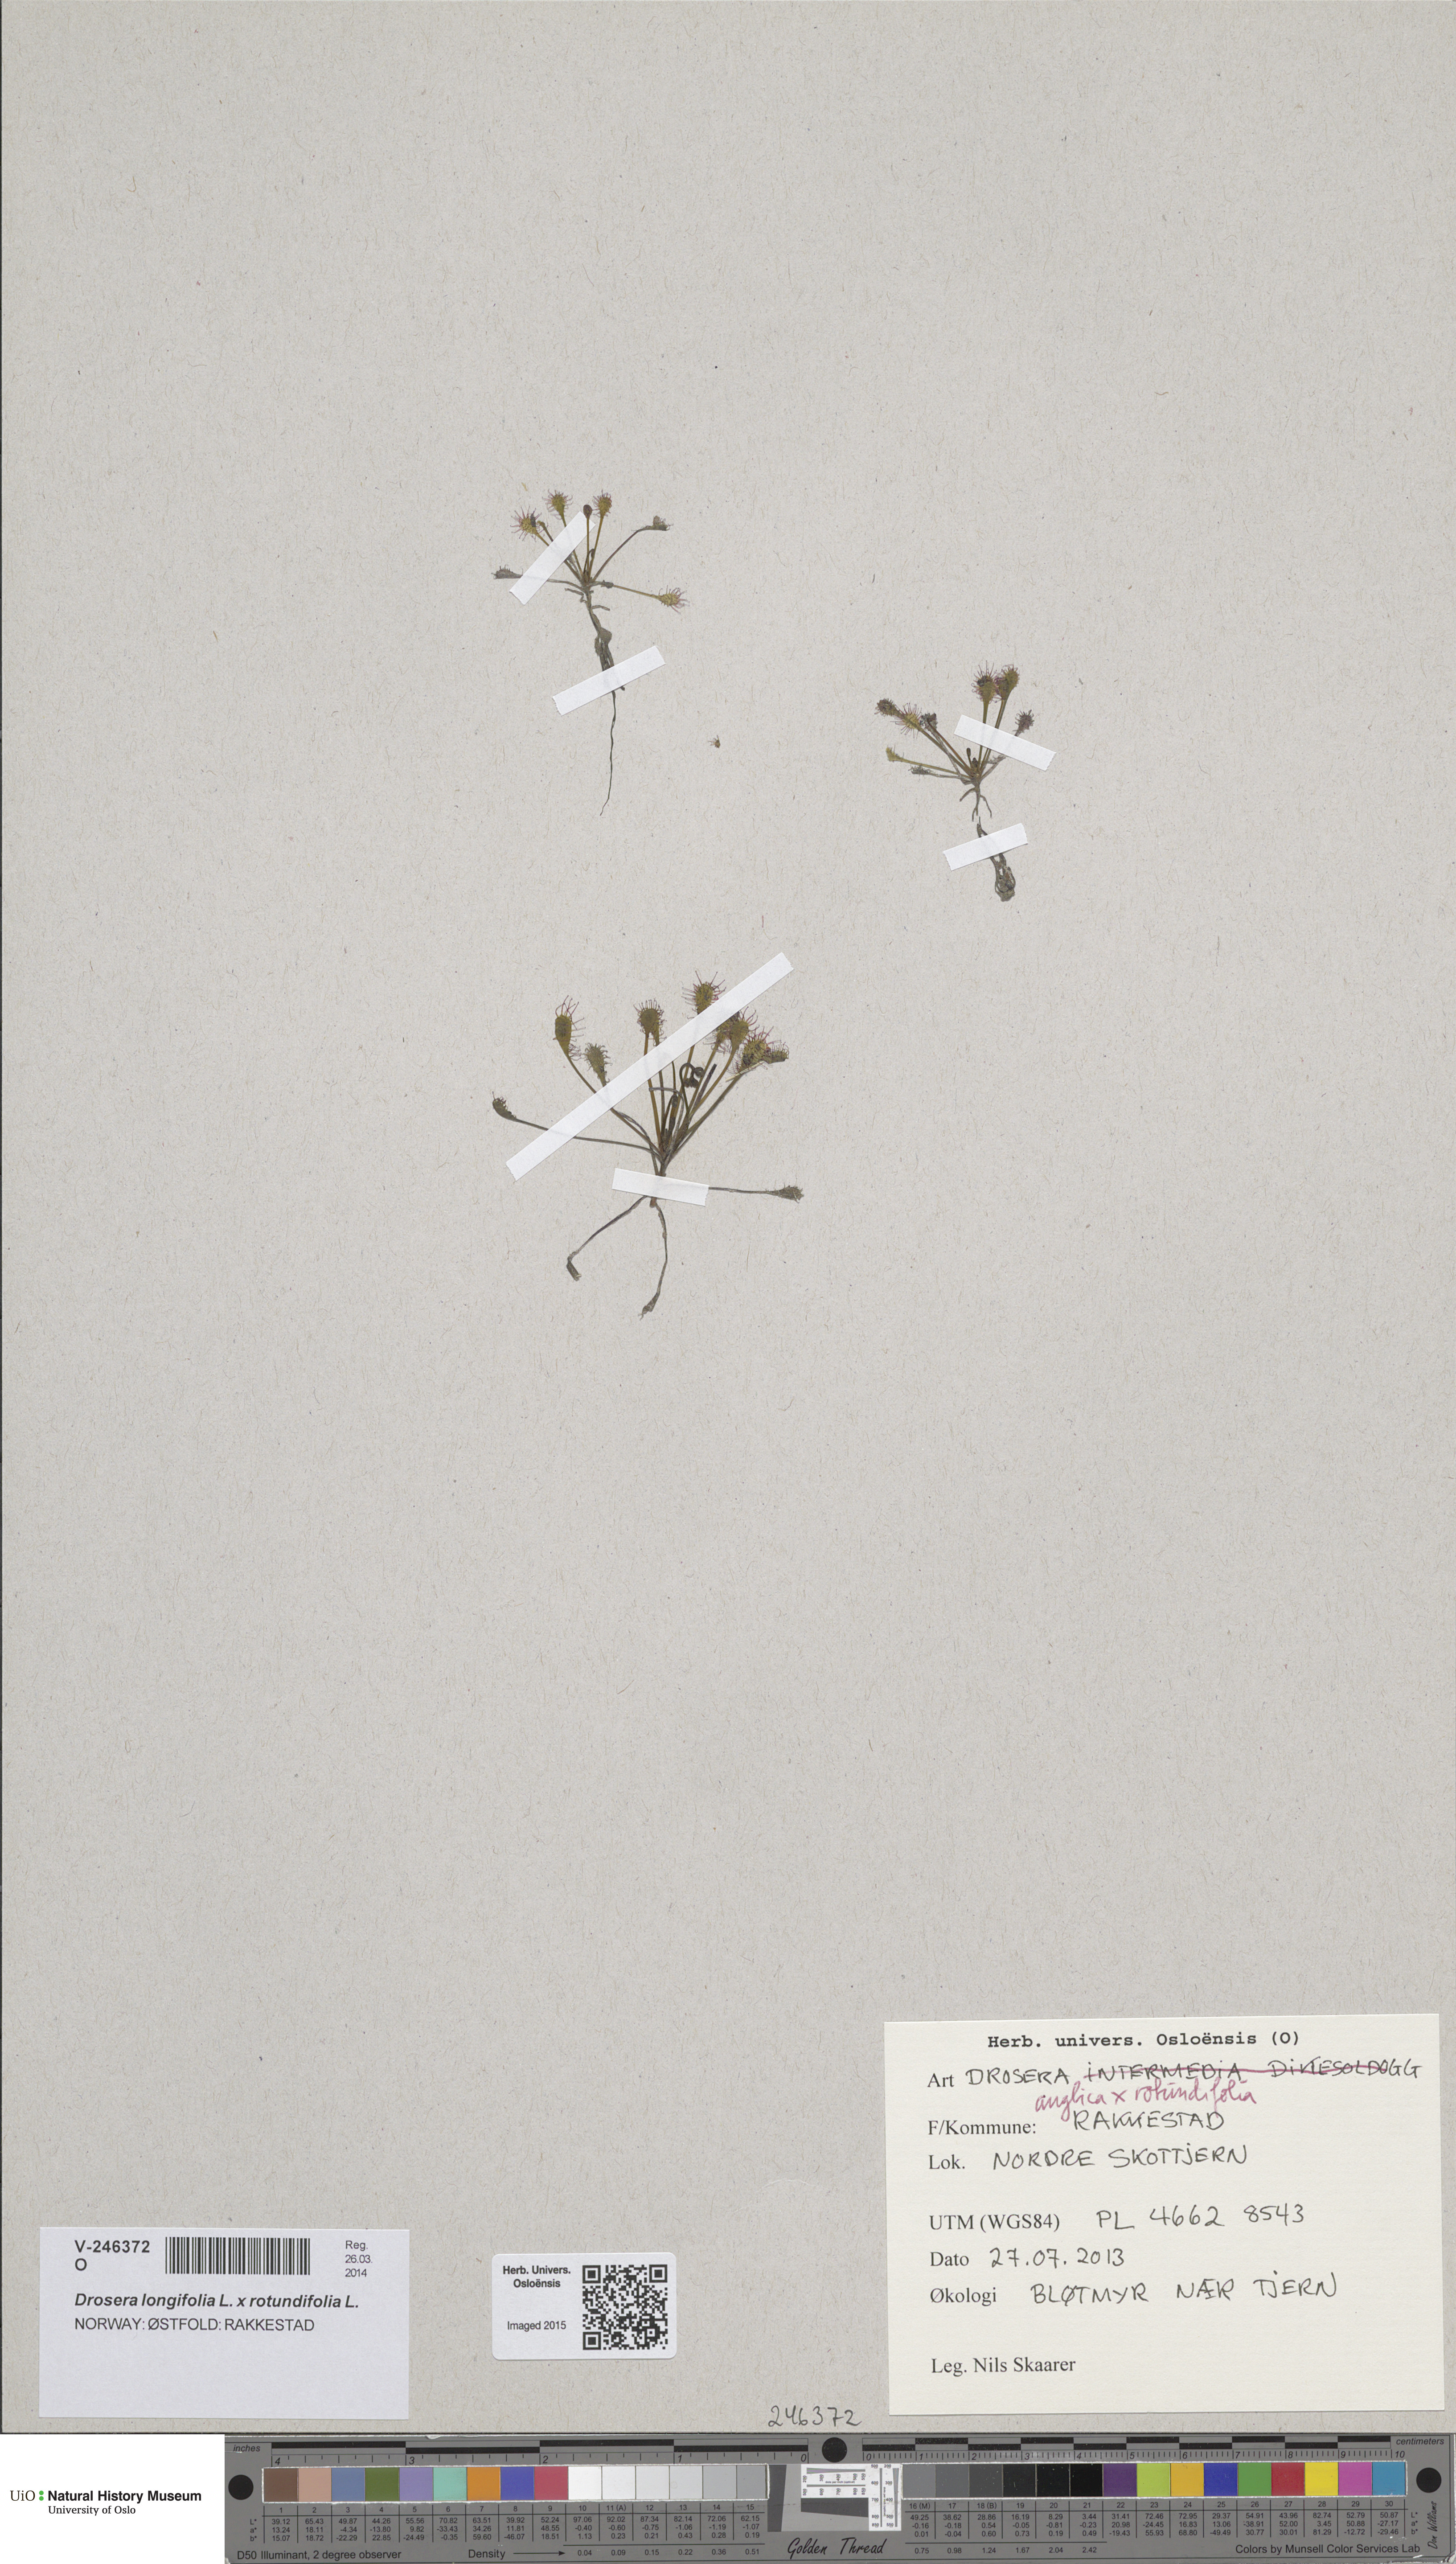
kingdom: Plantae
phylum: Tracheophyta
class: Magnoliopsida
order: Caryophyllales
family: Droseraceae
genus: Drosera
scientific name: Drosera
